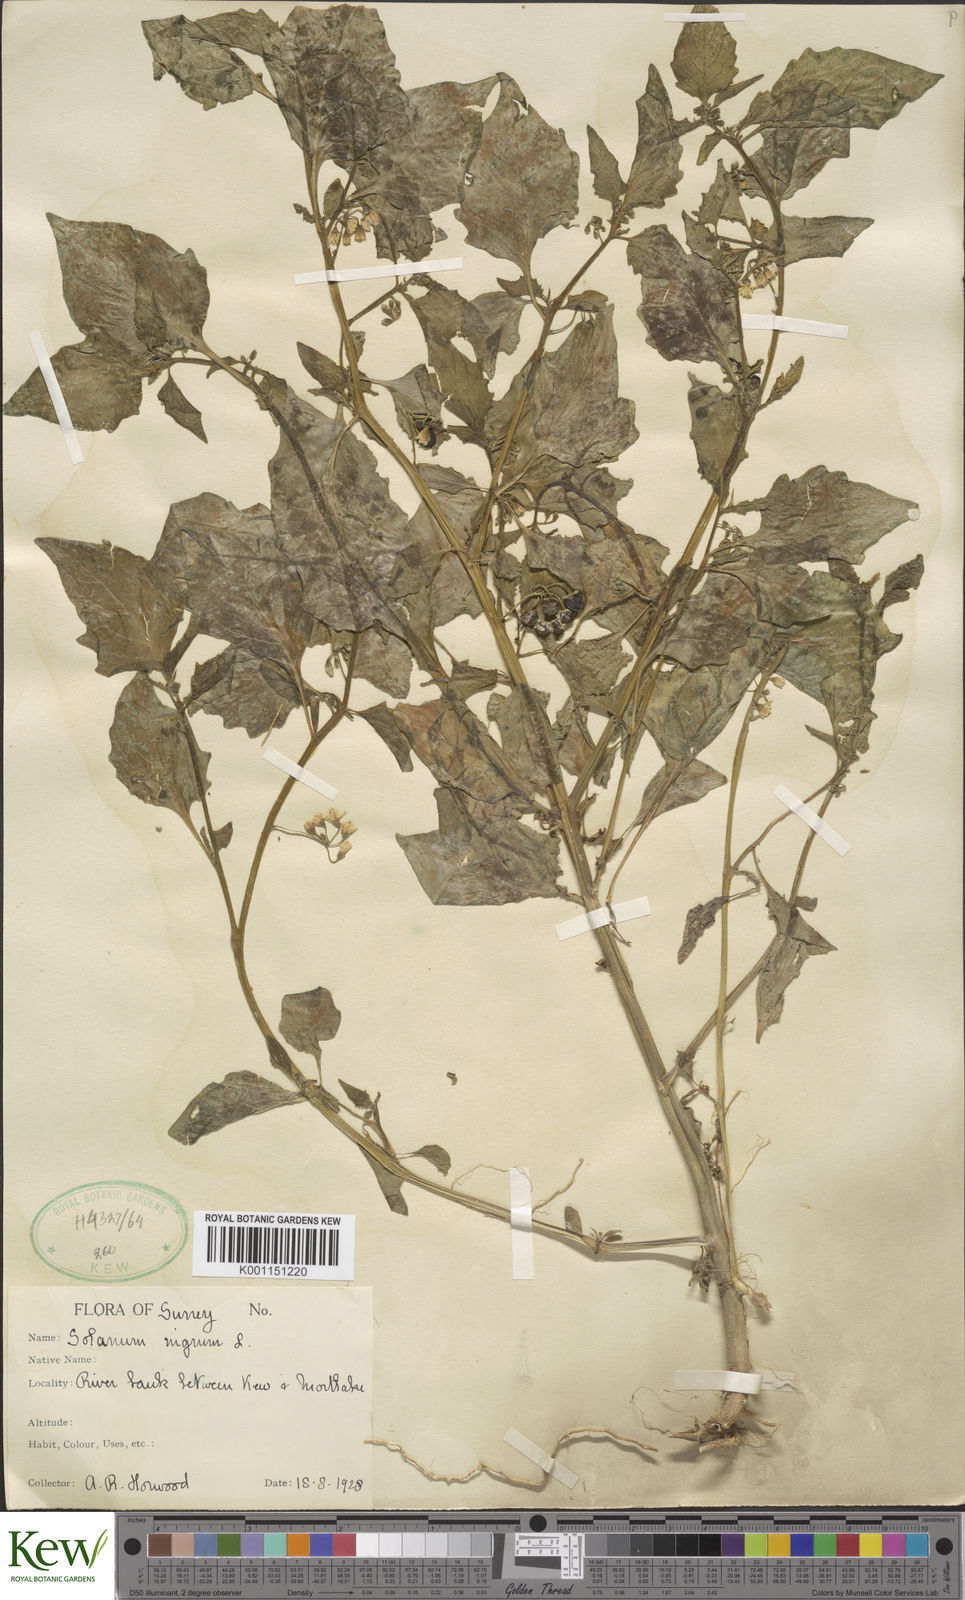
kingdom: Plantae
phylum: Tracheophyta
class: Magnoliopsida
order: Solanales
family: Solanaceae
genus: Solanum
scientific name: Solanum nigrum
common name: Black nightshade
